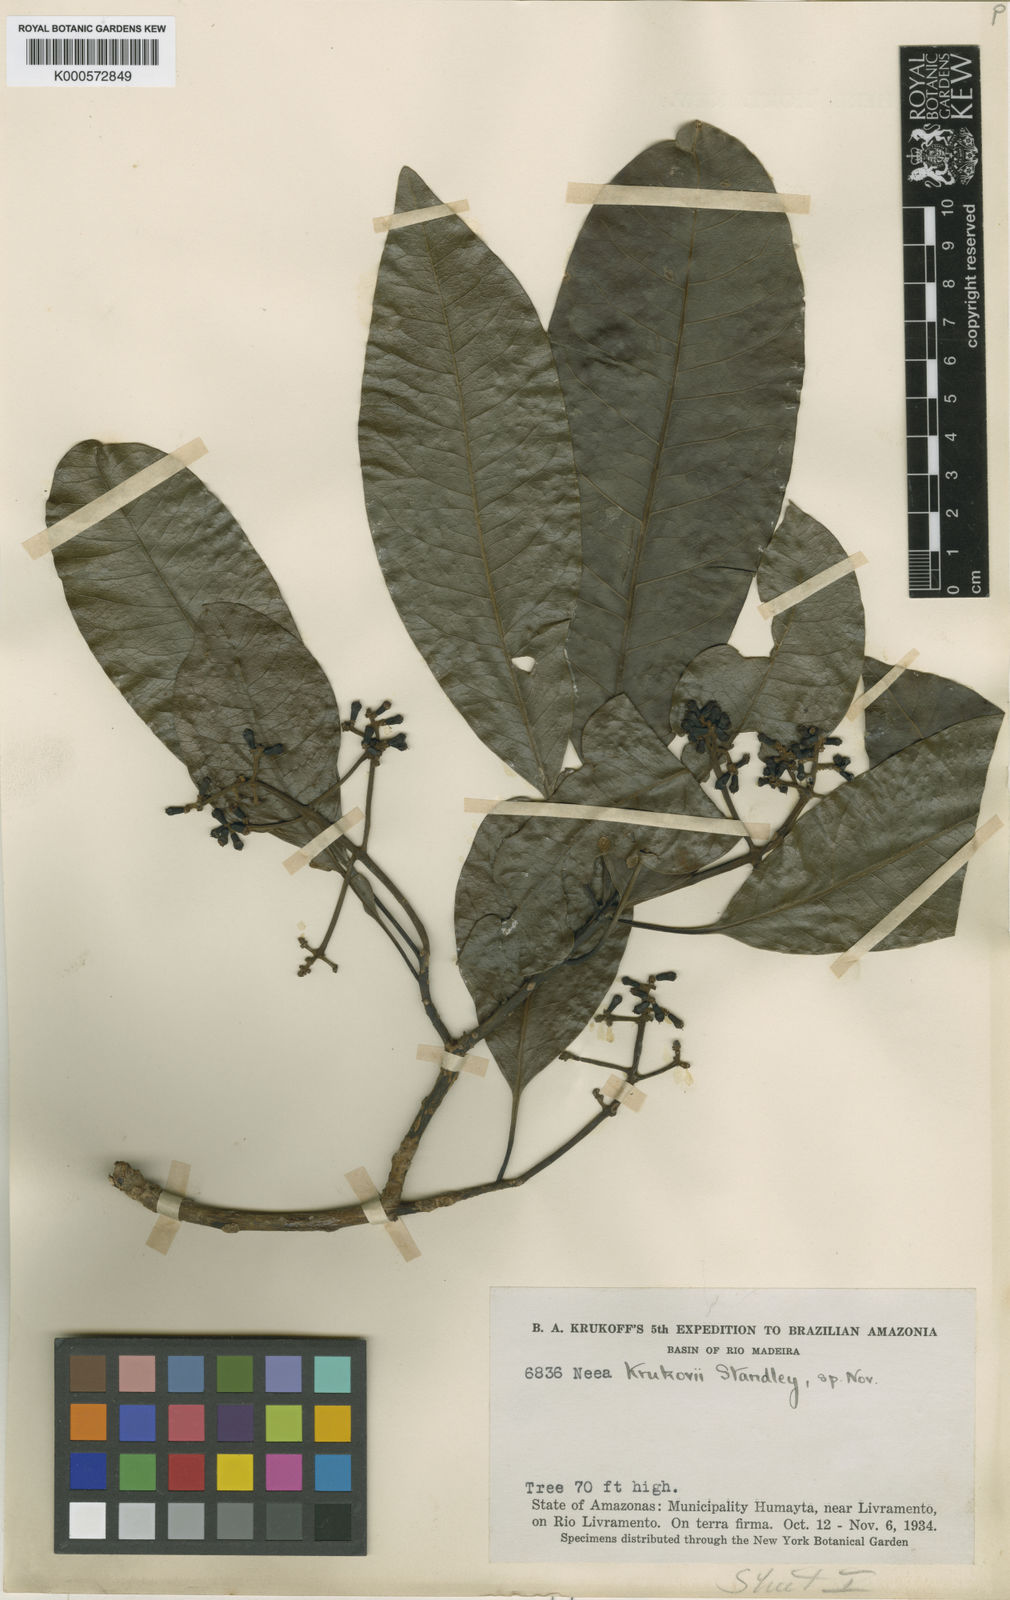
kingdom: Plantae
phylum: Tracheophyta
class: Magnoliopsida
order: Caryophyllales
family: Nyctaginaceae
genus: Neea
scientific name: Neea madeirana
